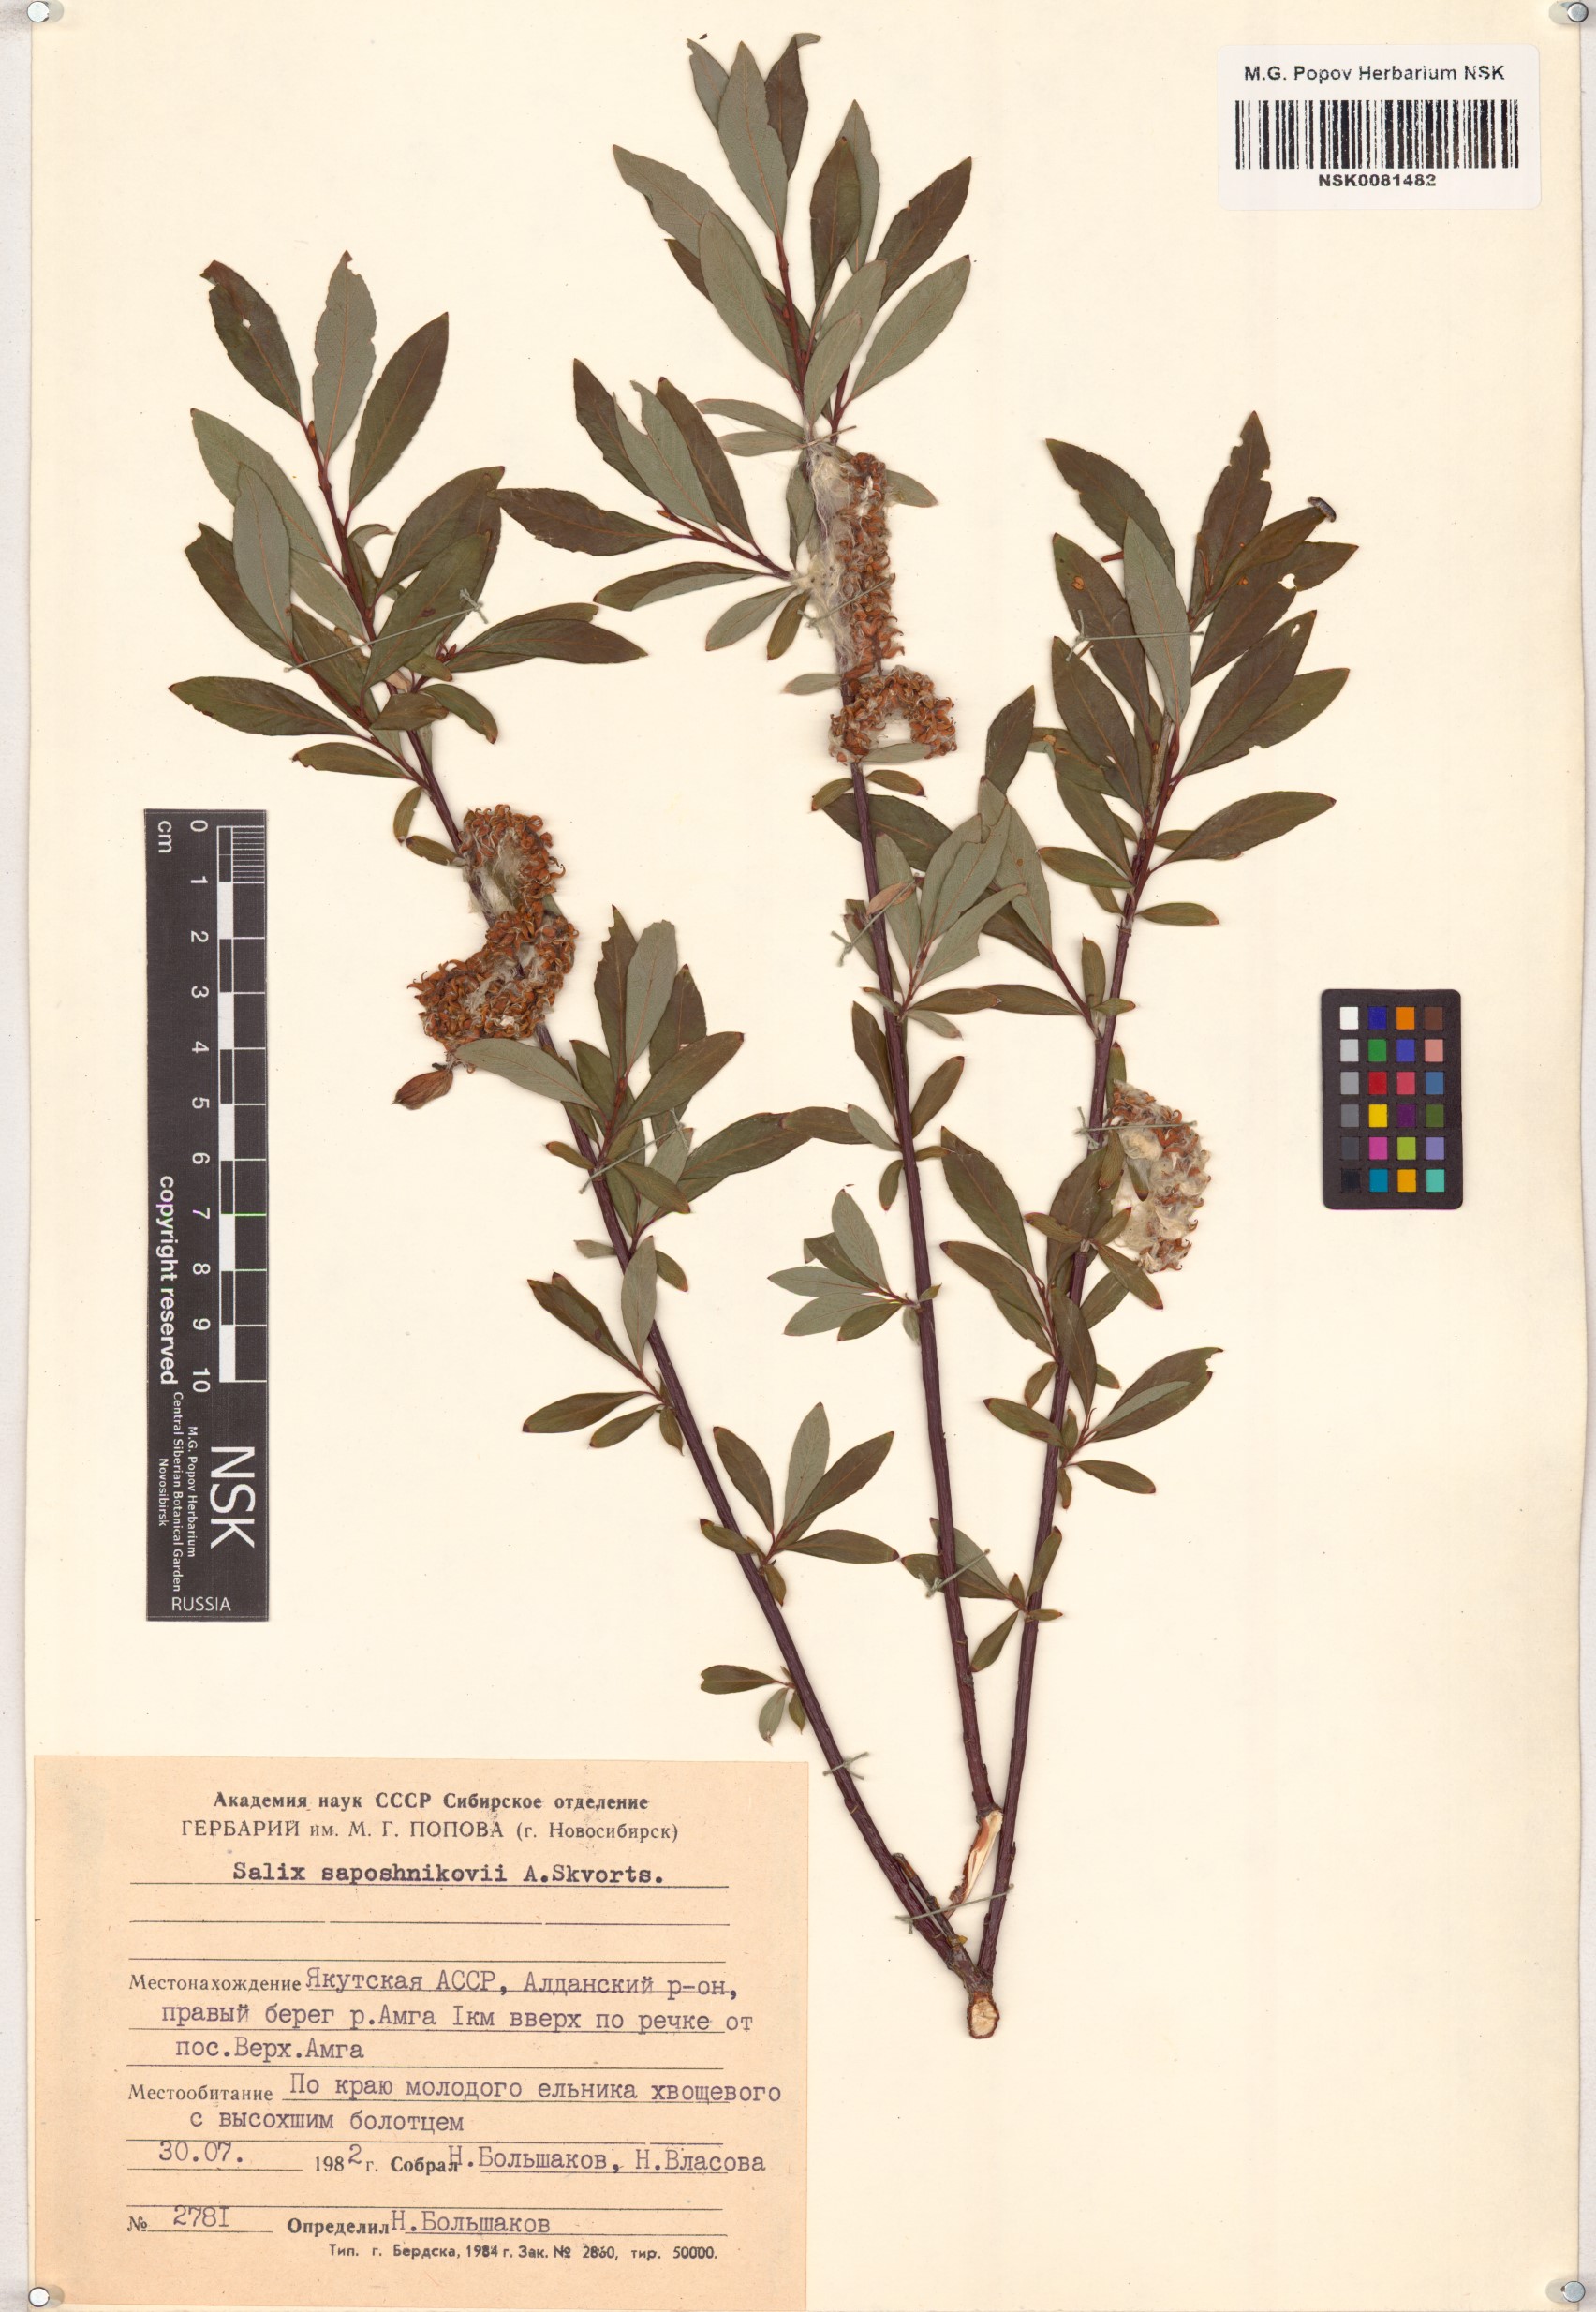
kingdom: Plantae
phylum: Tracheophyta
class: Magnoliopsida
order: Malpighiales
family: Salicaceae
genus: Salix
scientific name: Salix saposhnikovii
